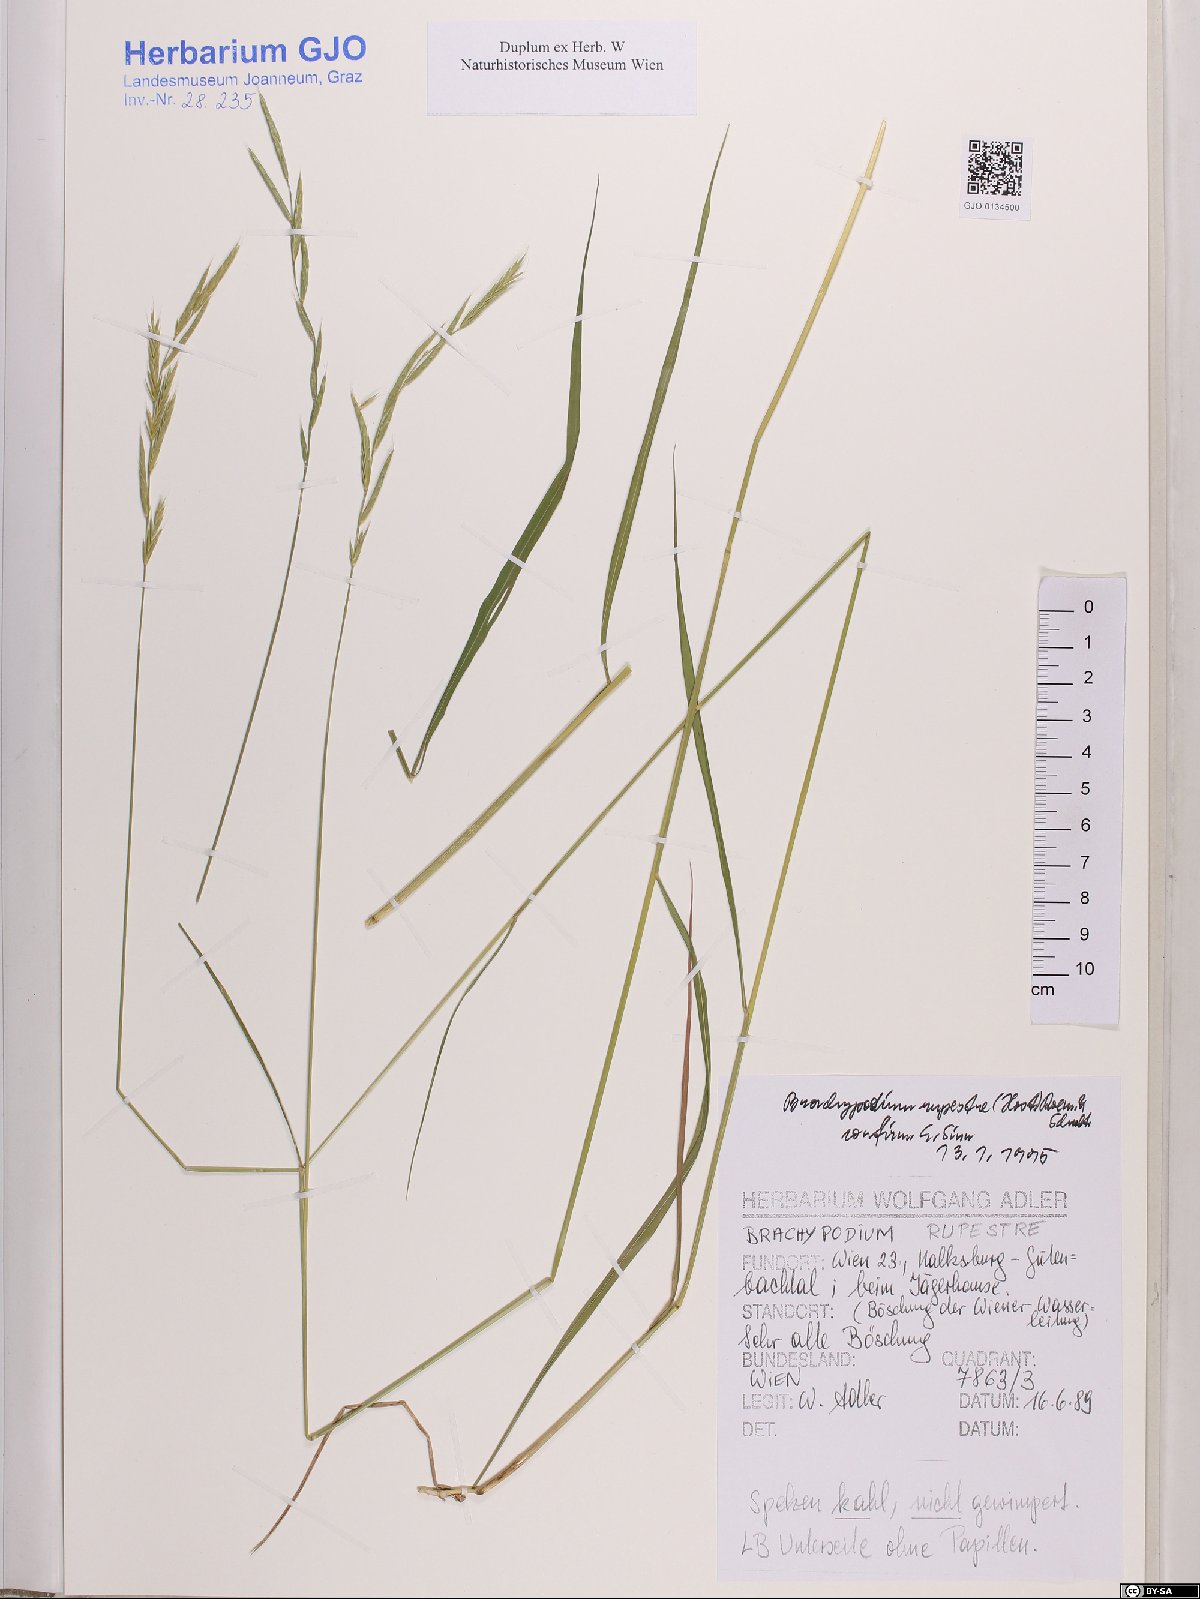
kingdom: Plantae
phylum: Tracheophyta
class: Liliopsida
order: Poales
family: Poaceae
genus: Brachypodium
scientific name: Brachypodium pinnatum
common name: Tor grass
